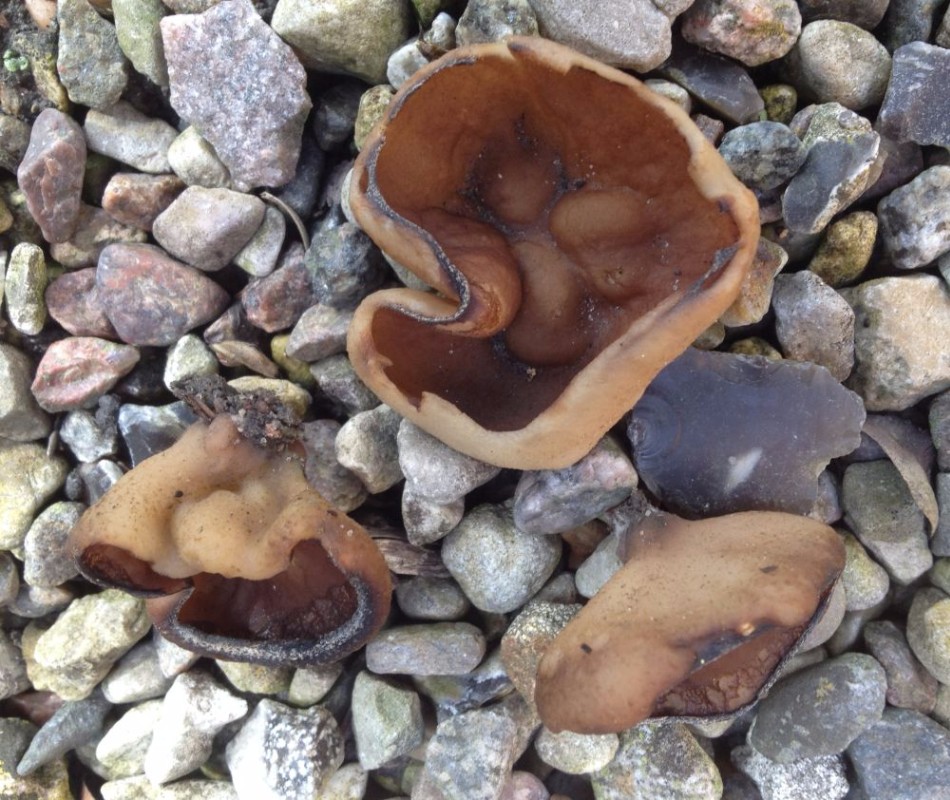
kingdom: Fungi
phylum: Ascomycota
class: Pezizomycetes
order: Pezizales
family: Morchellaceae
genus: Disciotis
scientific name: Disciotis venosa
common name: klor-bægermorkel
